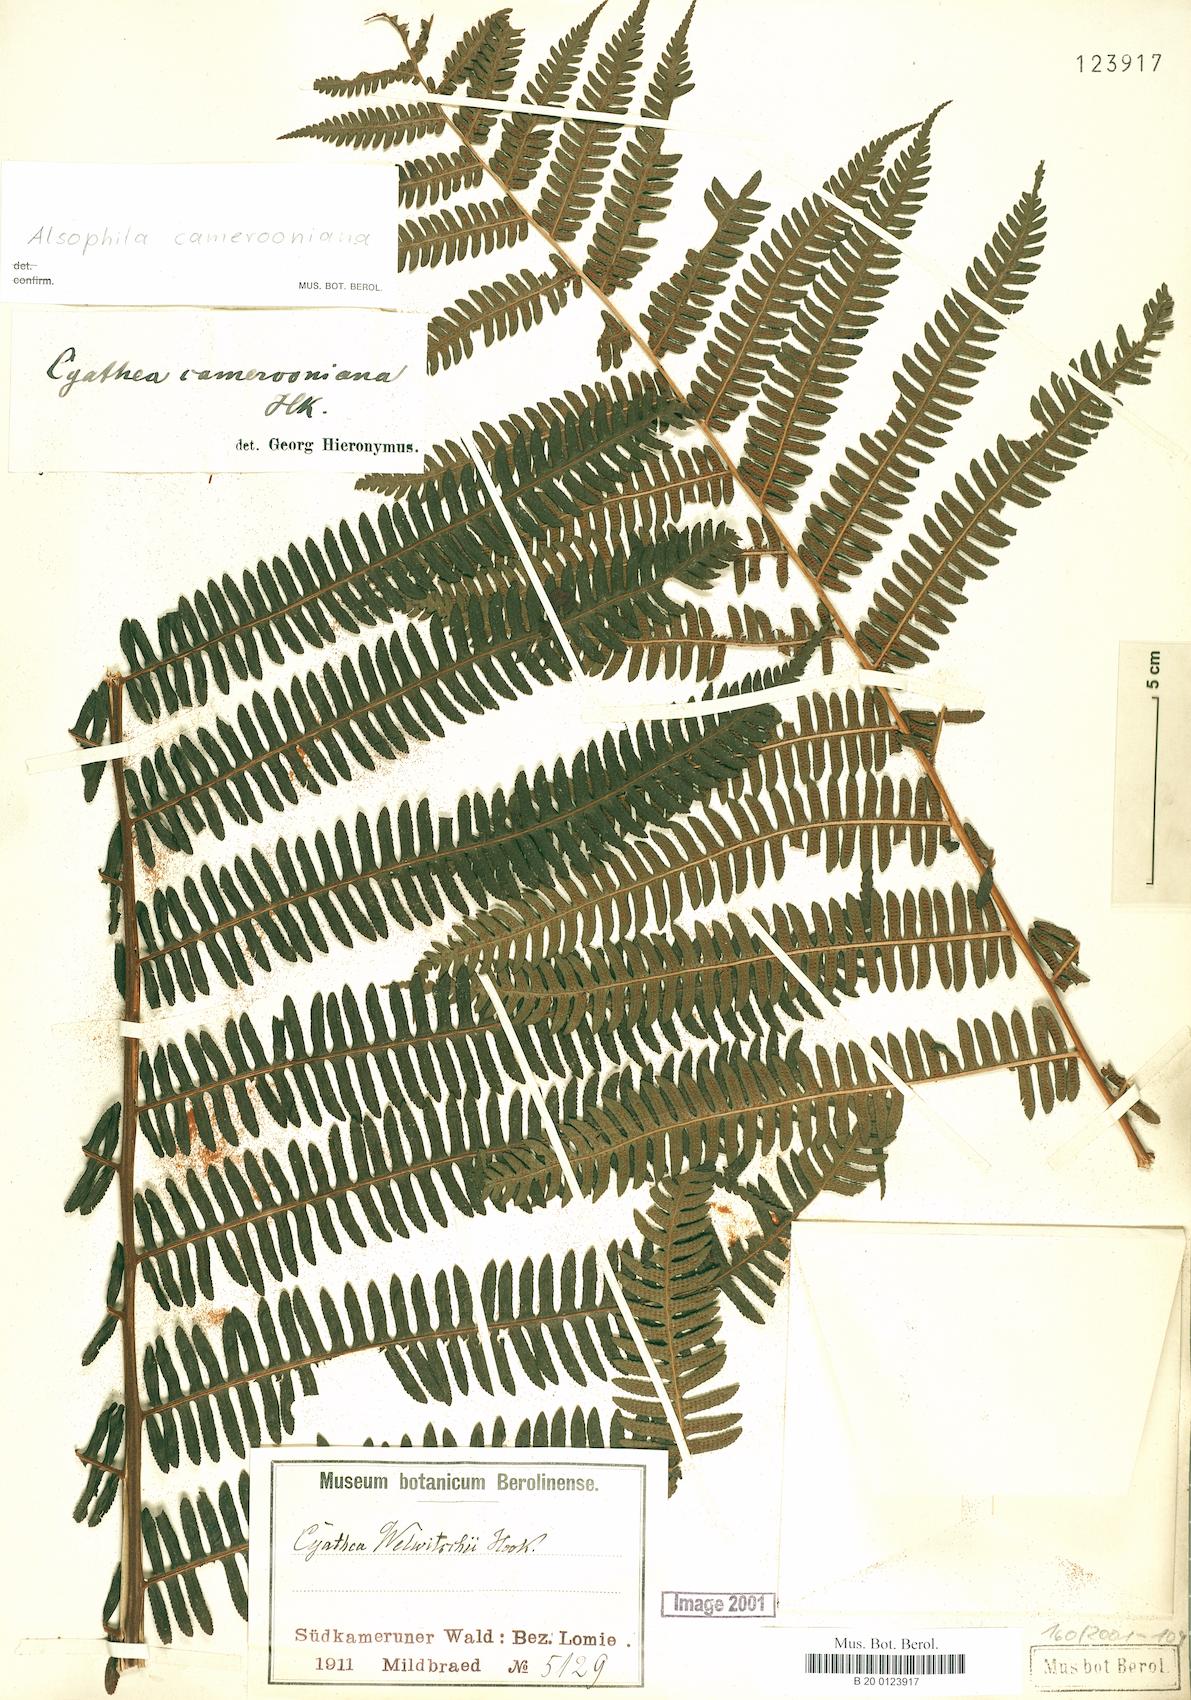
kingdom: Plantae
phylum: Tracheophyta
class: Polypodiopsida
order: Cyatheales
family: Cyatheaceae
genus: Alsophila
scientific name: Alsophila camerooniana
